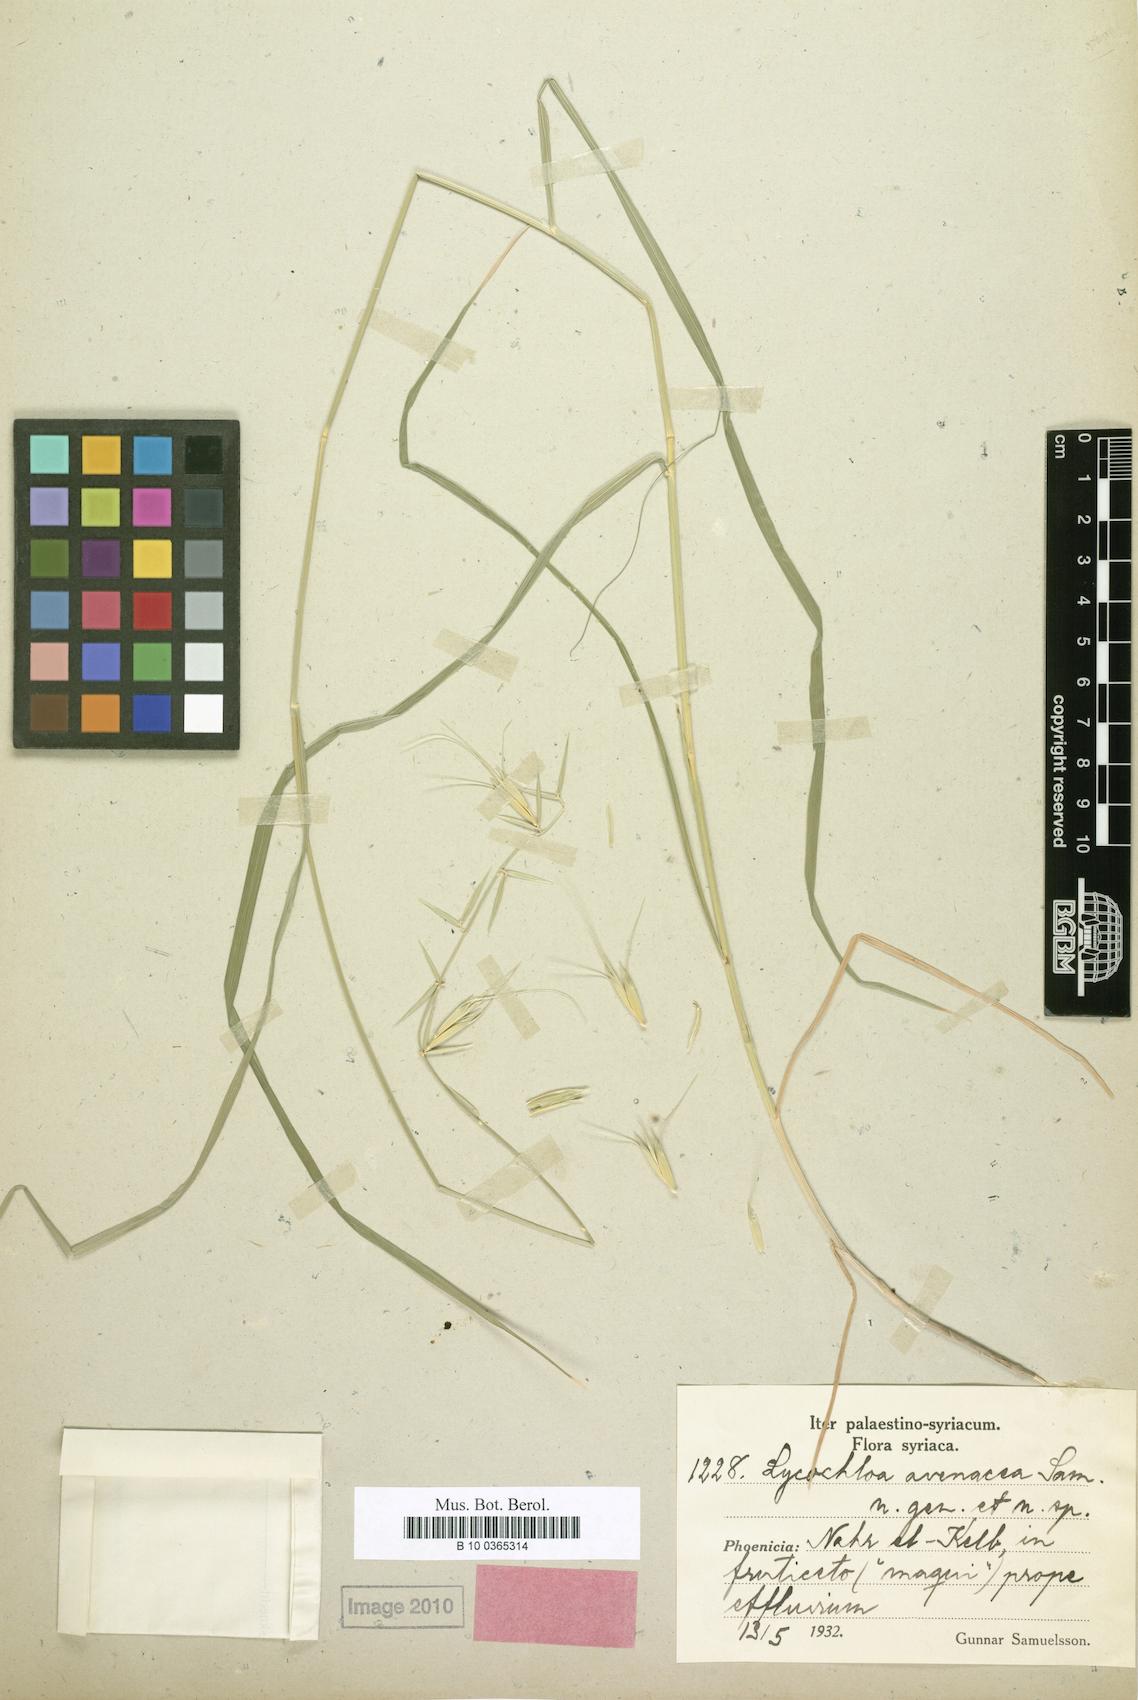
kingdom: Plantae
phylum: Tracheophyta
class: Liliopsida
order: Poales
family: Poaceae
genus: Lycochloa
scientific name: Lycochloa avenacea
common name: Oat-like lycochloa
